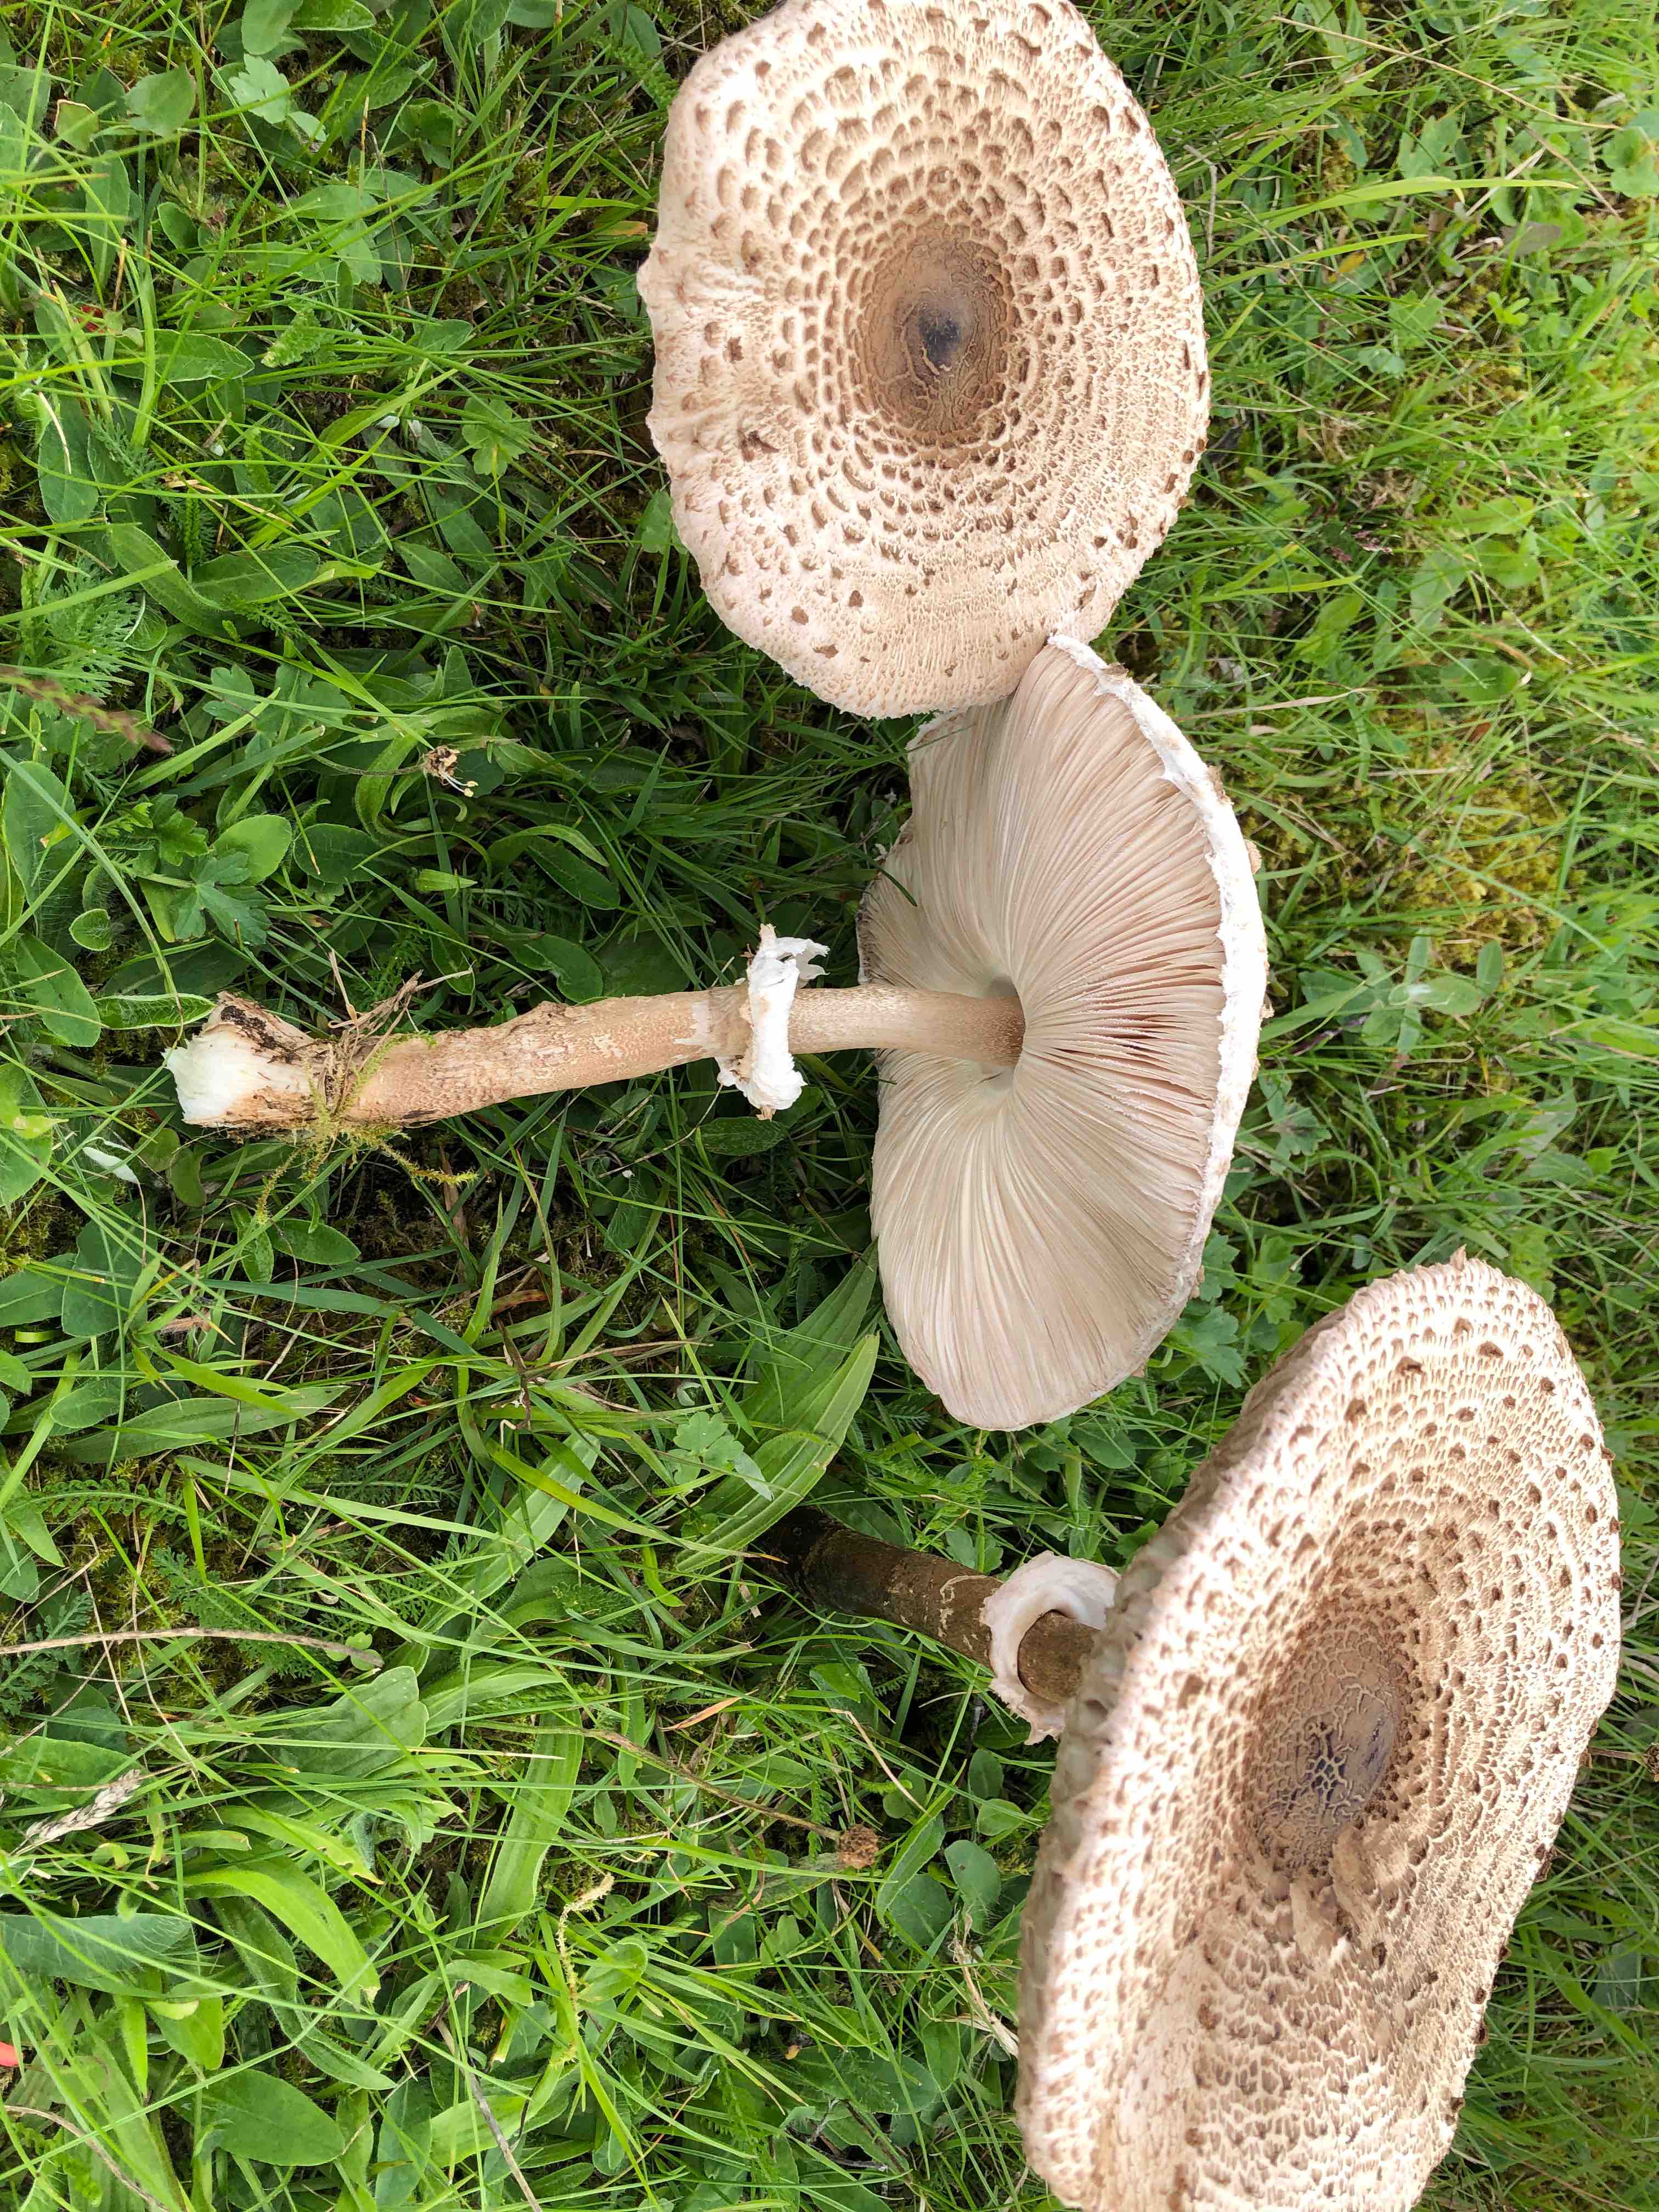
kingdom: Fungi
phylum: Basidiomycota
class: Agaricomycetes
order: Agaricales
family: Agaricaceae
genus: Macrolepiota
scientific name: Macrolepiota procera
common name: stor kæmpeparasolhat
